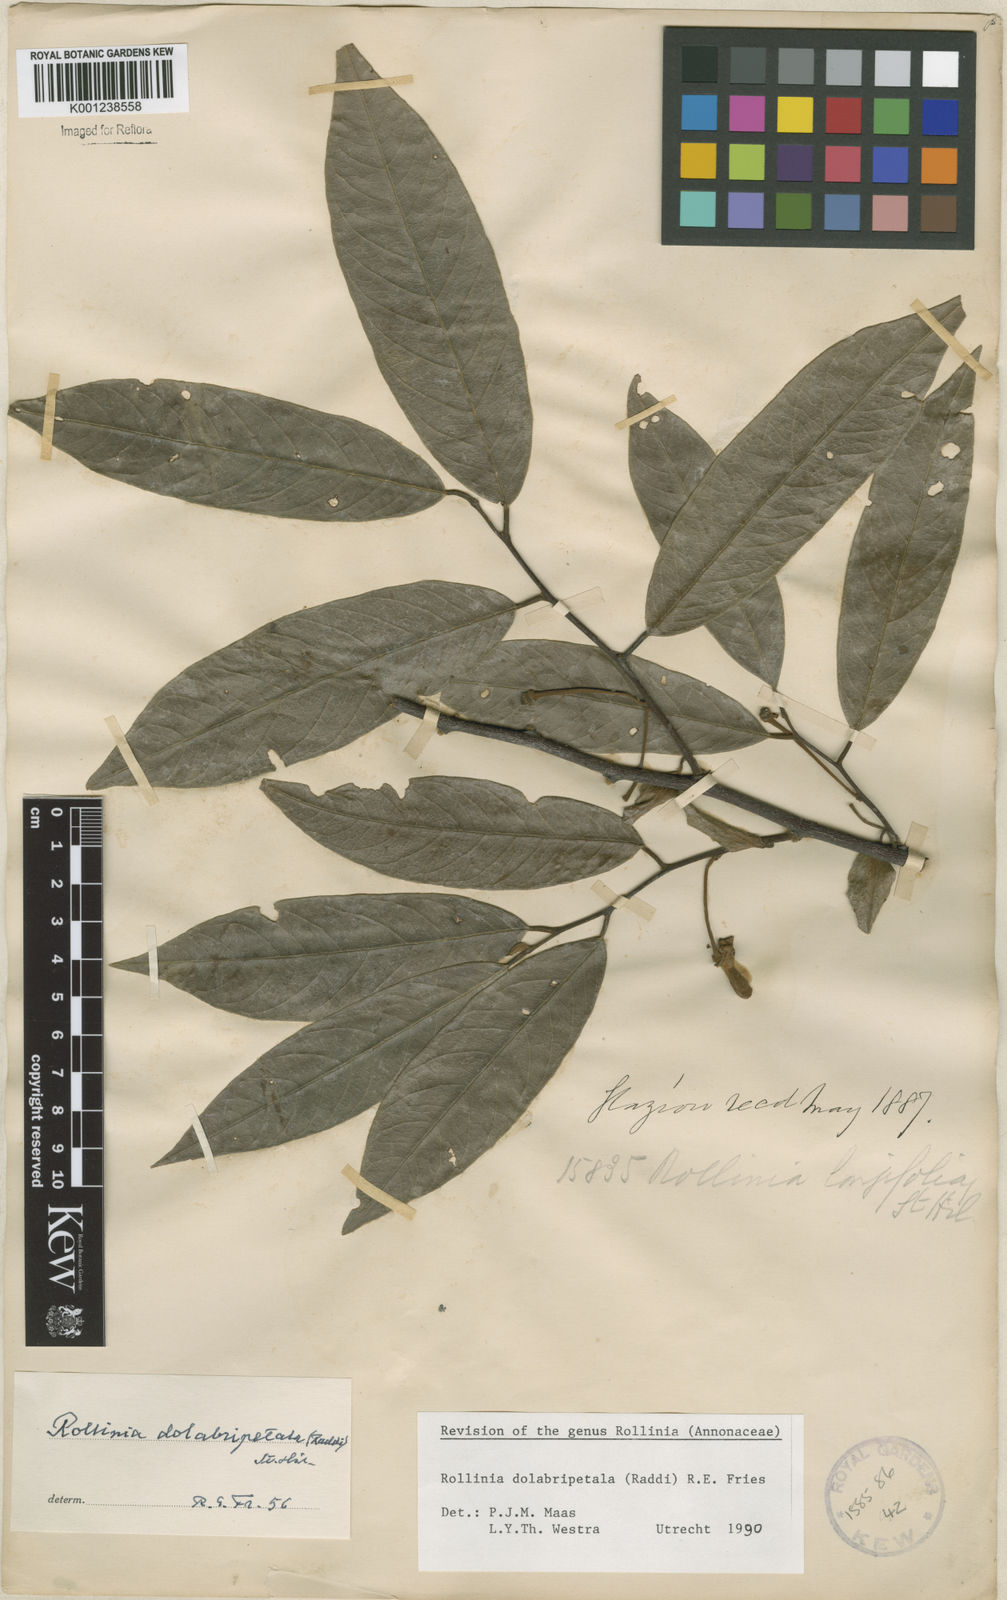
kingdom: Plantae
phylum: Tracheophyta
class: Magnoliopsida
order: Magnoliales
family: Annonaceae
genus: Annona
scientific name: Annona
